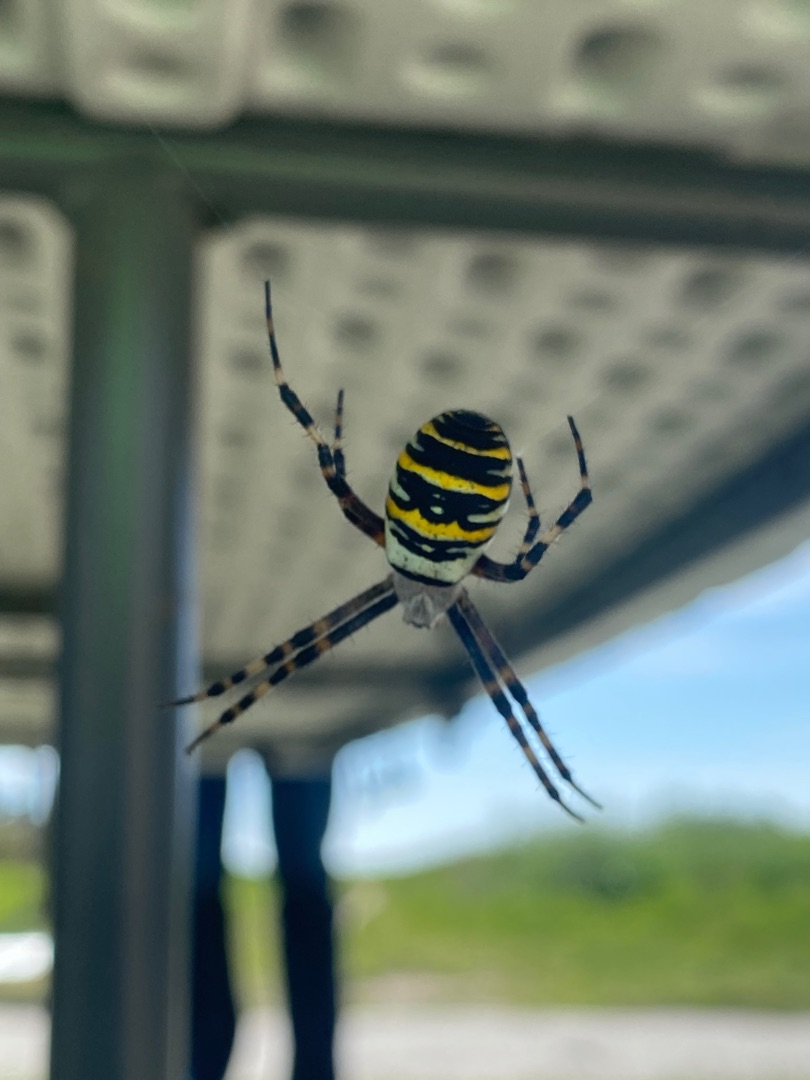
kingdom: Animalia
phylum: Arthropoda
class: Arachnida
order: Araneae
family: Araneidae
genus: Argiope
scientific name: Argiope bruennichi
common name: Hvepseedderkop
